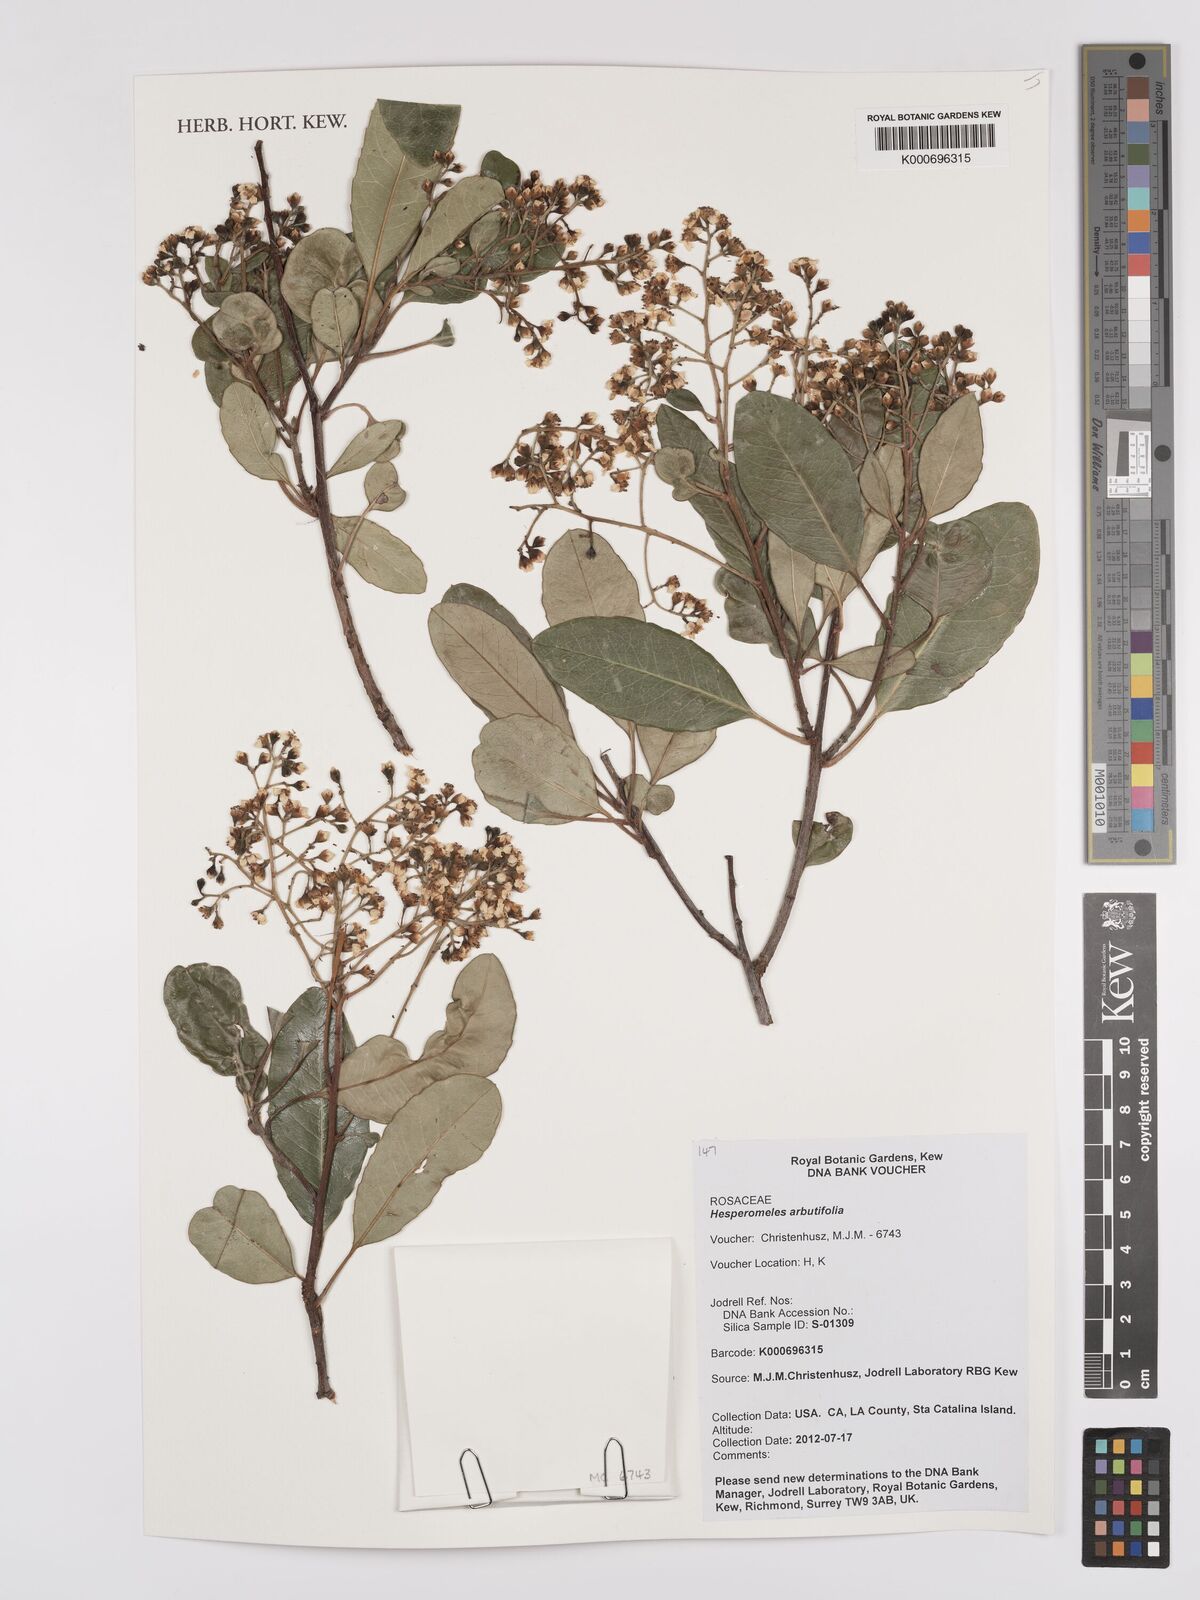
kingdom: Plantae
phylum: Tracheophyta
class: Magnoliopsida
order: Rosales
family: Rosaceae
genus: Hesperomeles
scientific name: Hesperomeles
